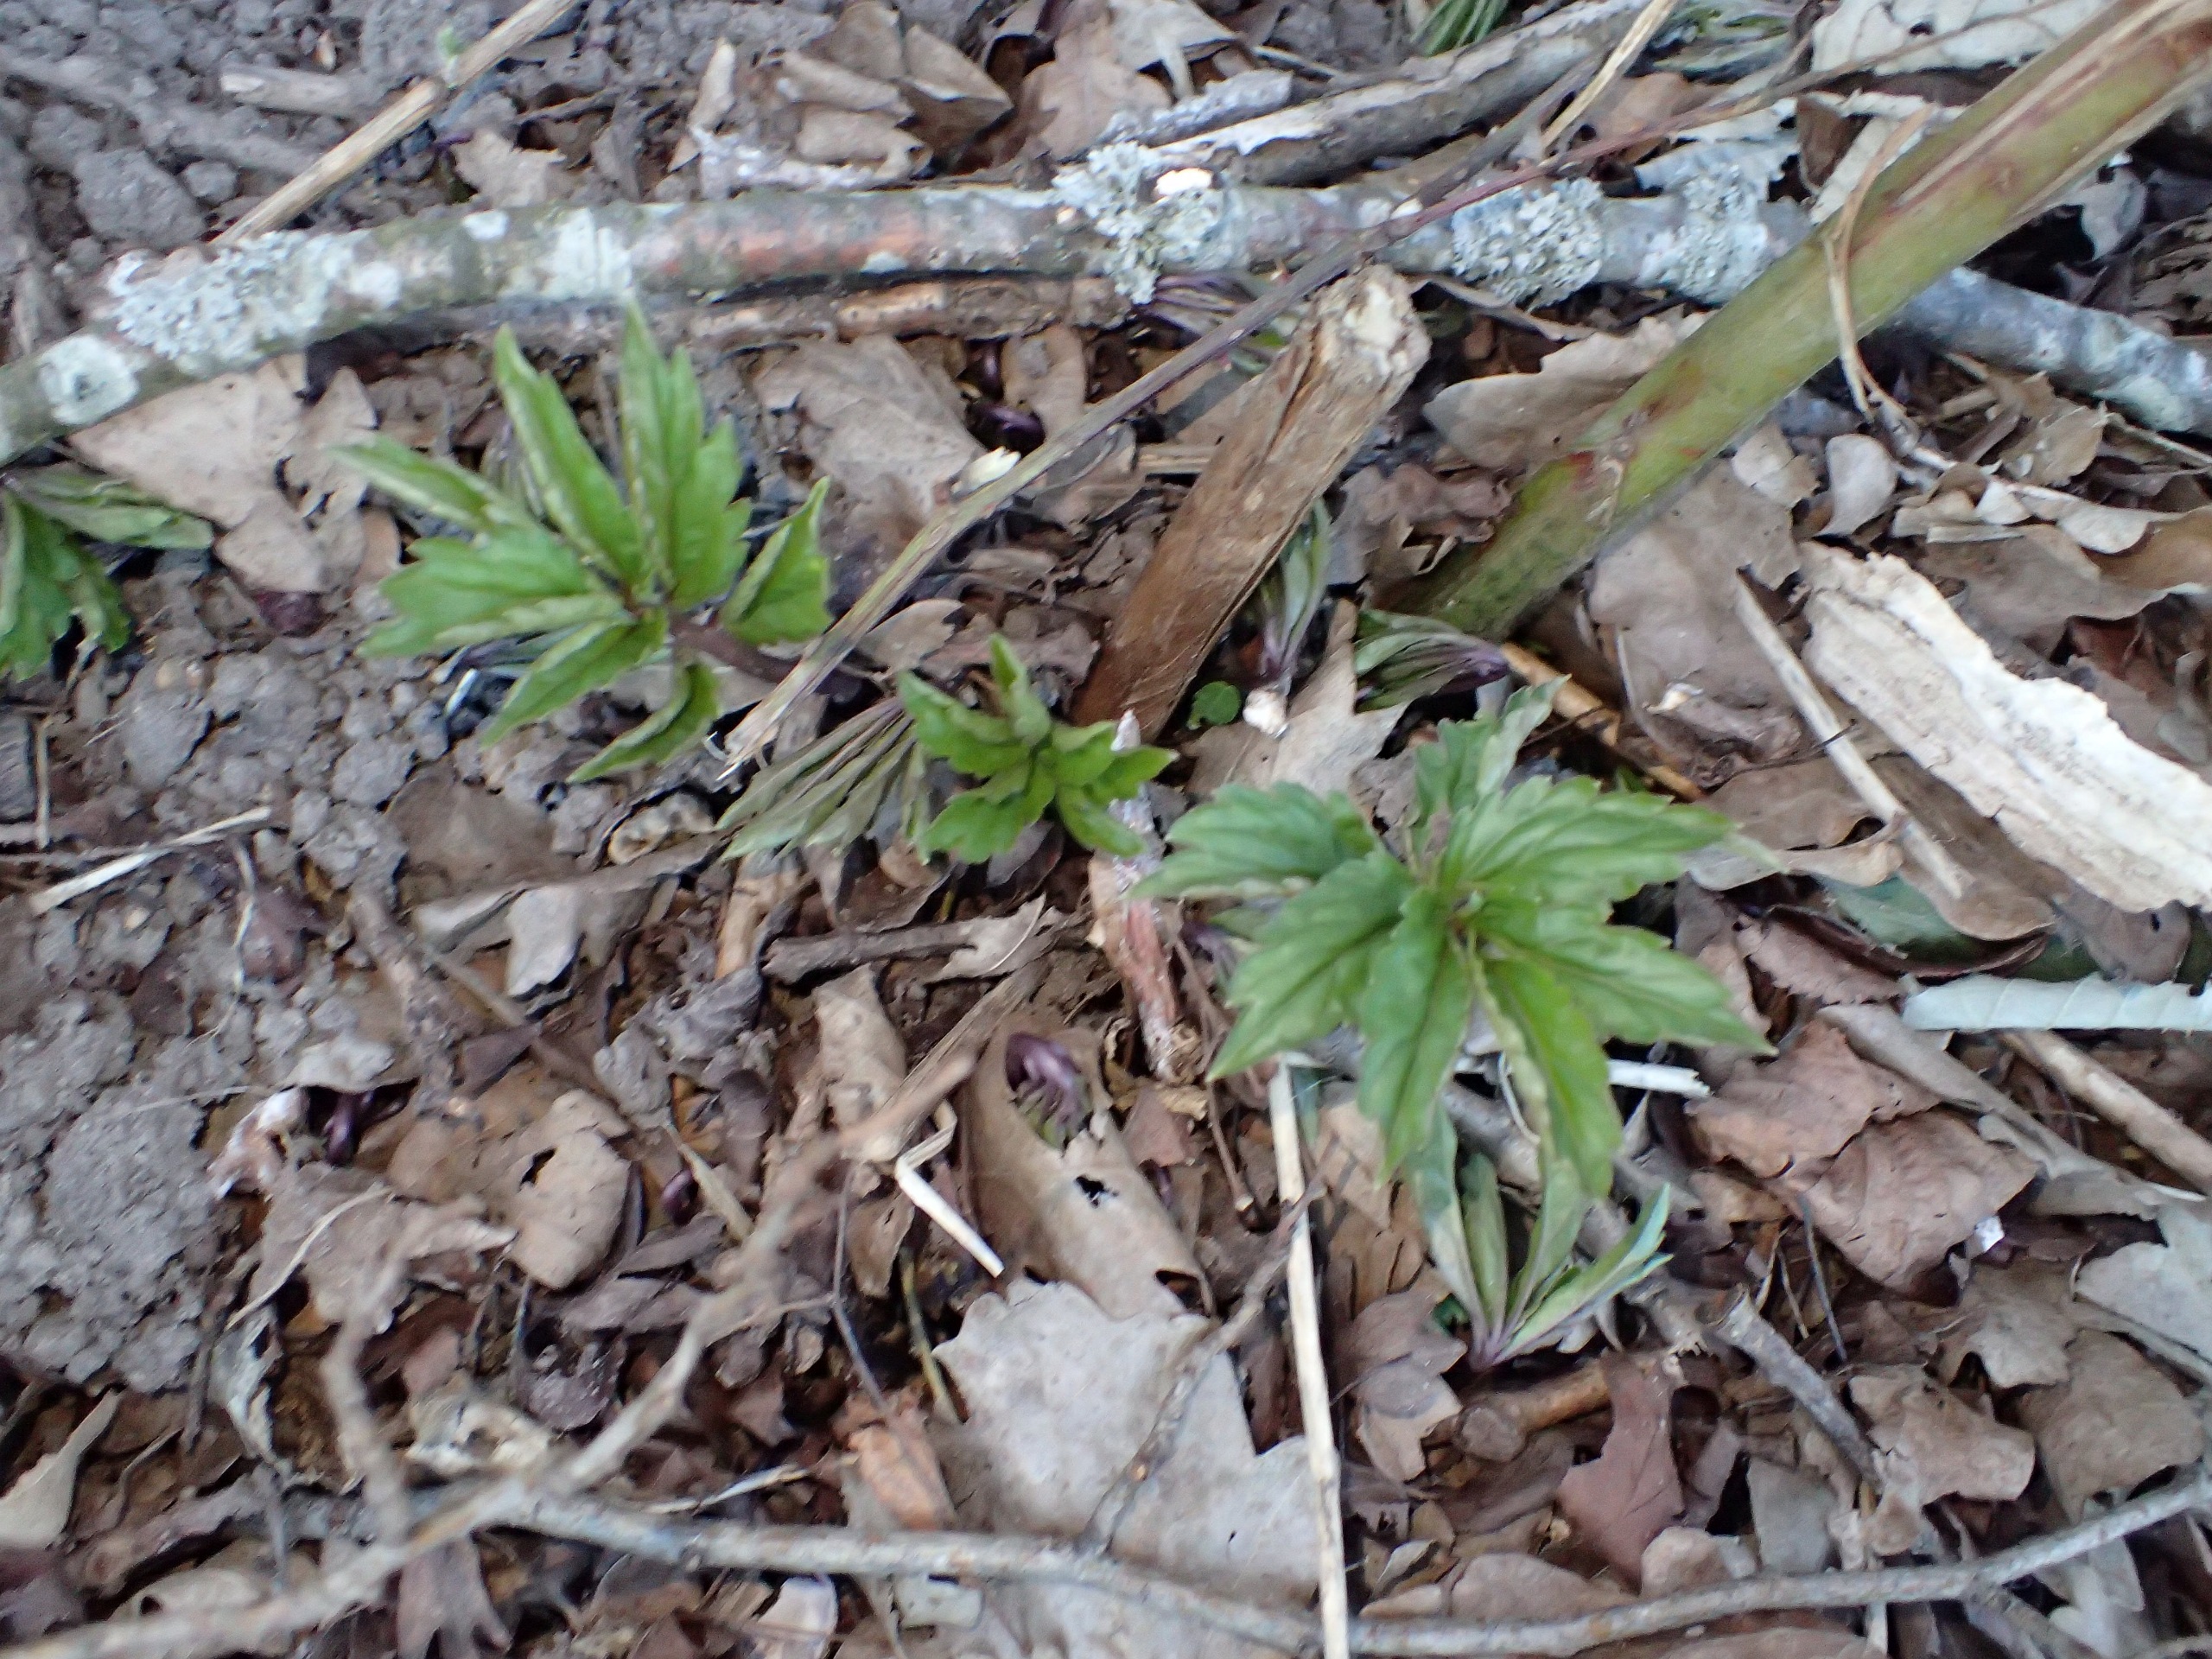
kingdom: Plantae
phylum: Tracheophyta
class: Magnoliopsida
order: Brassicales
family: Brassicaceae
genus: Cardamine
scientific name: Cardamine bulbifera
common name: Tandrod
